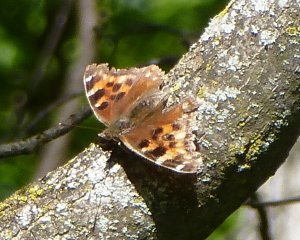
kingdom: Animalia
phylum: Arthropoda
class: Insecta
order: Lepidoptera
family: Nymphalidae
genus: Polygonia
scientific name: Polygonia vaualbum
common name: Compton Tortoiseshell
